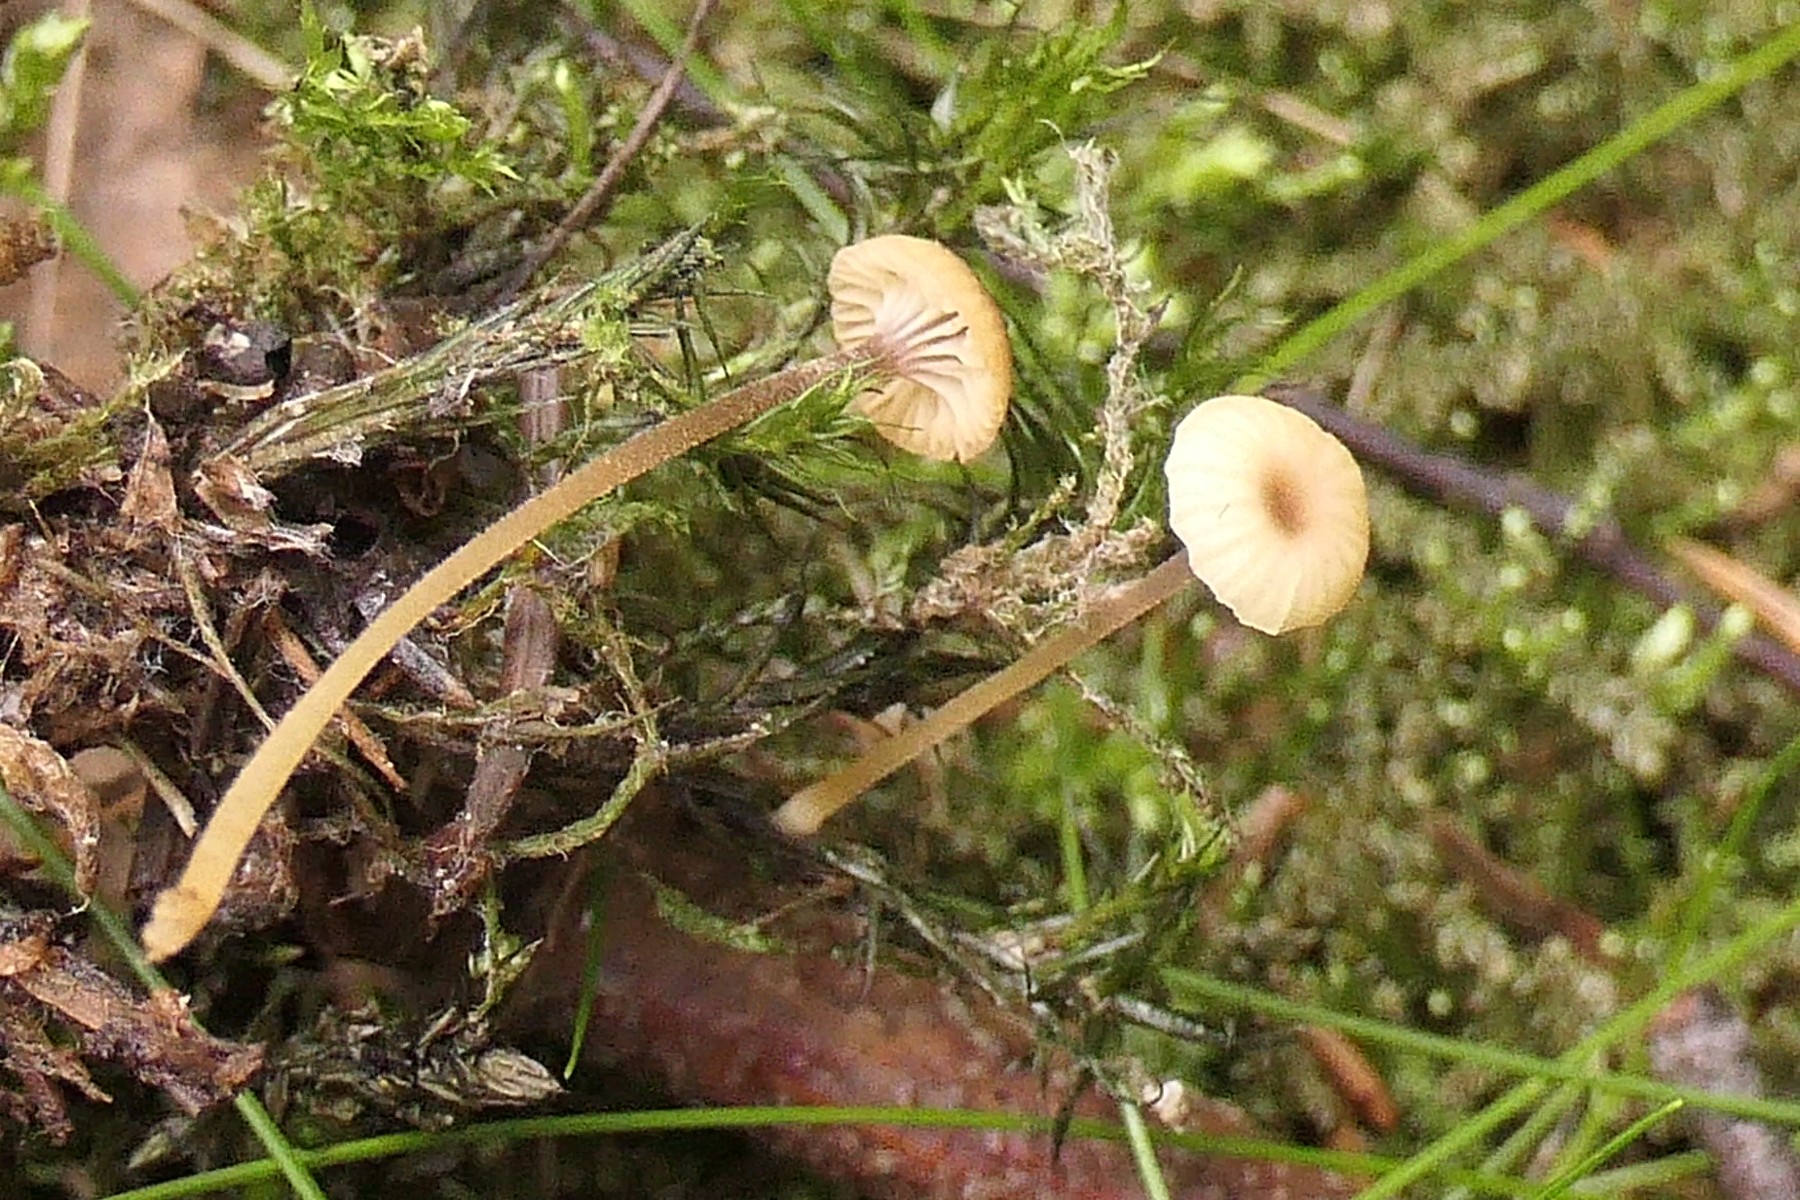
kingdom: Fungi
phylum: Basidiomycota
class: Agaricomycetes
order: Hymenochaetales
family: Rickenellaceae
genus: Rickenella
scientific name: Rickenella swartzii
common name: finstokket mosnavlehat
